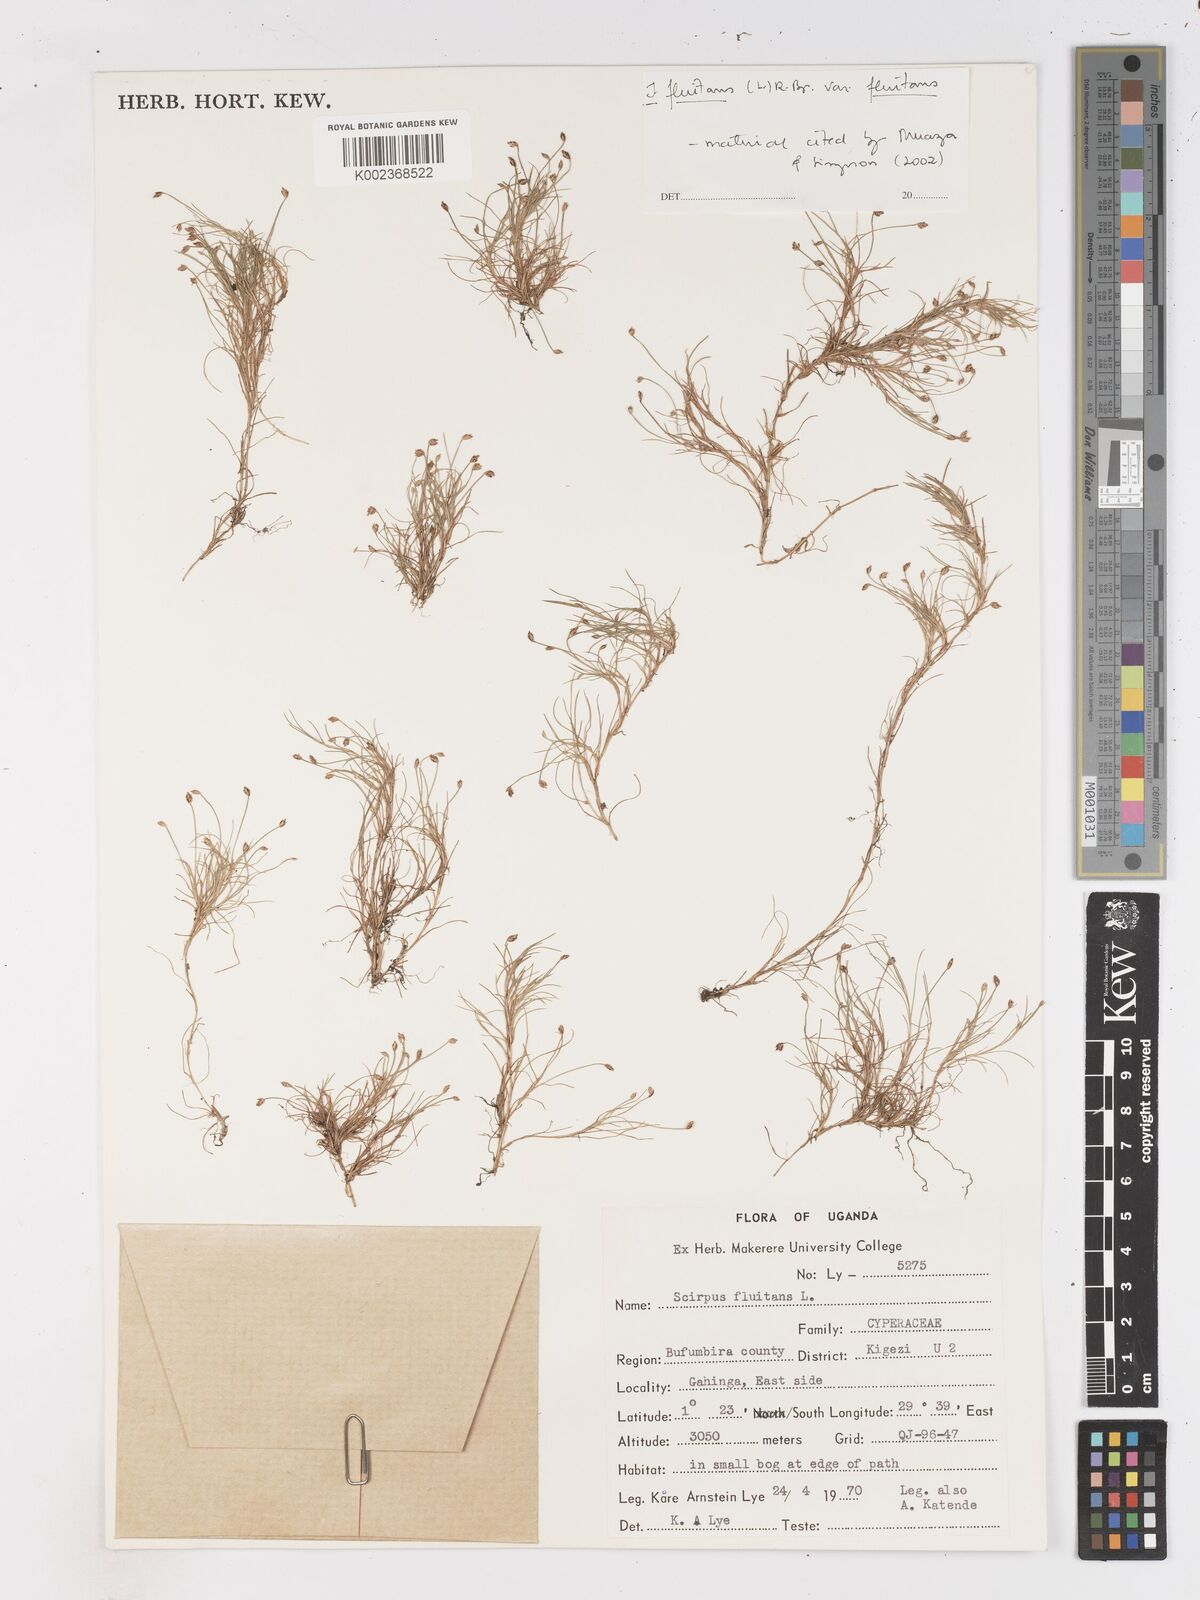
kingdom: Plantae
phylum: Tracheophyta
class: Liliopsida
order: Poales
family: Cyperaceae
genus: Isolepis
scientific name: Isolepis fluitans
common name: Floating club-rush
